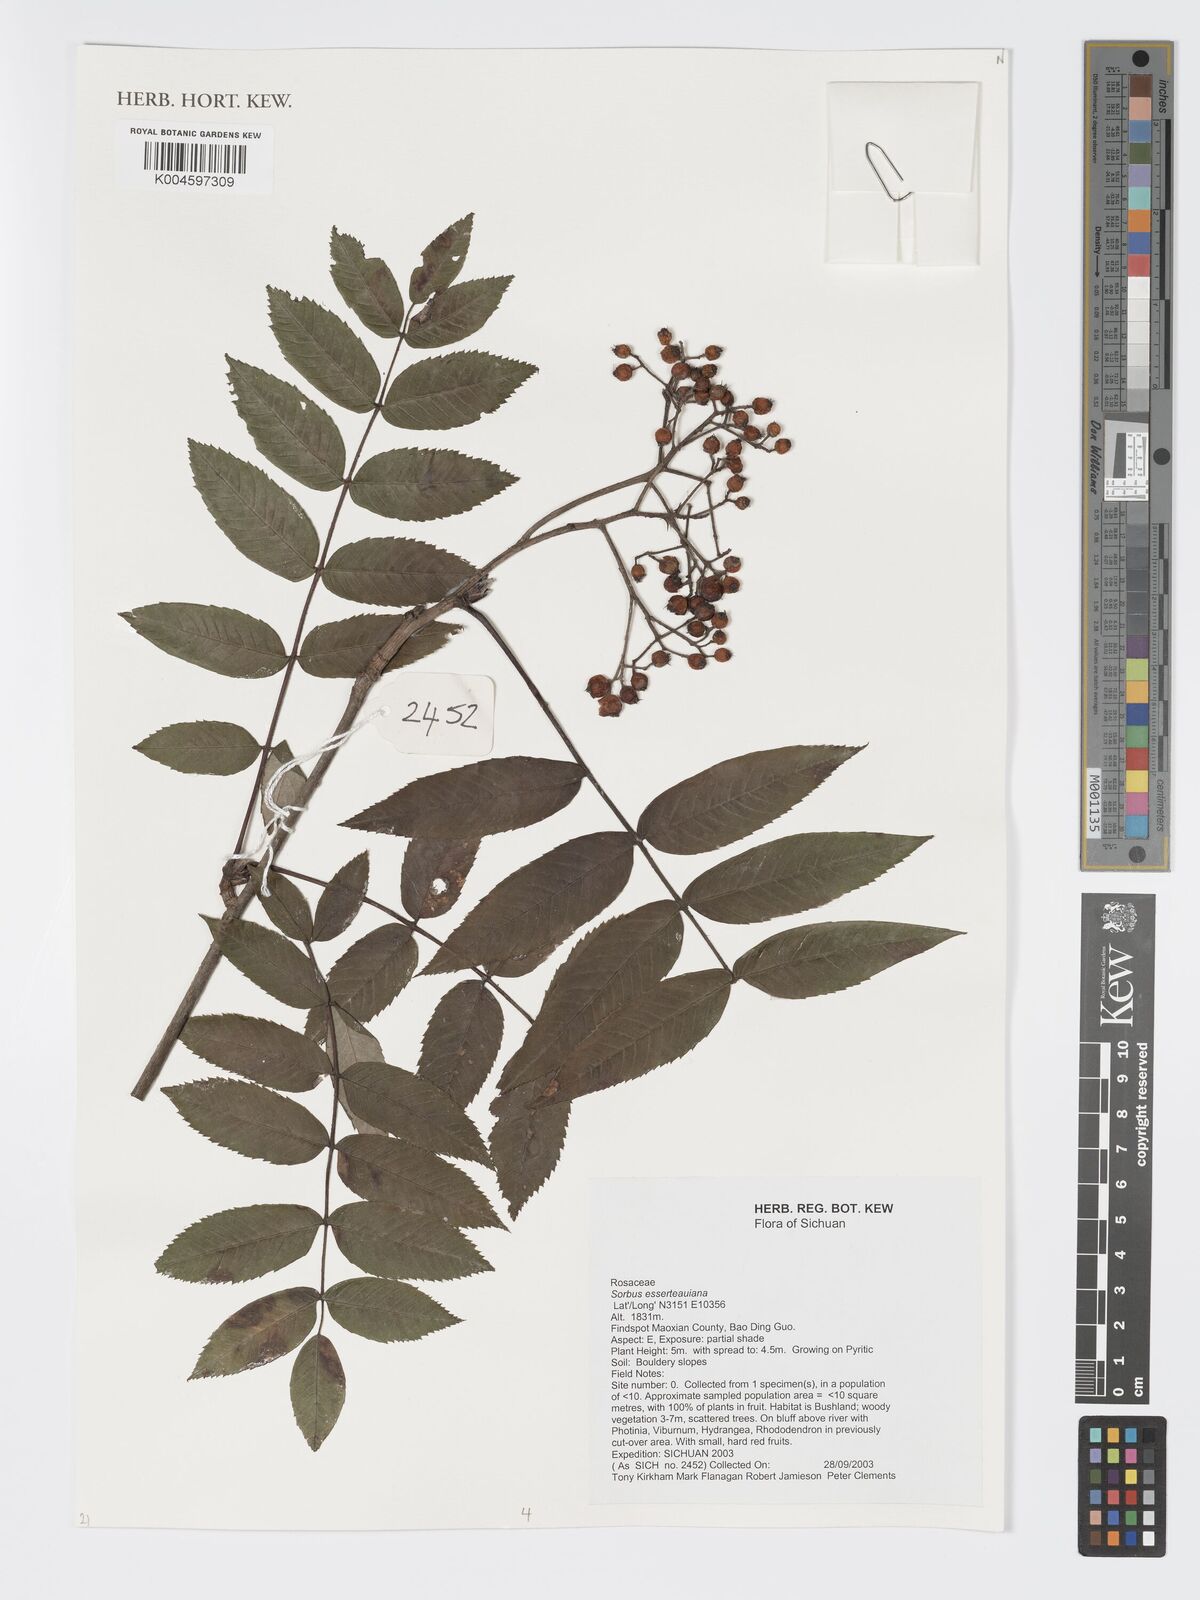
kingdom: Plantae
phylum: Tracheophyta
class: Magnoliopsida
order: Rosales
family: Rosaceae
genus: Sorbus
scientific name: Sorbus esserteauiana
